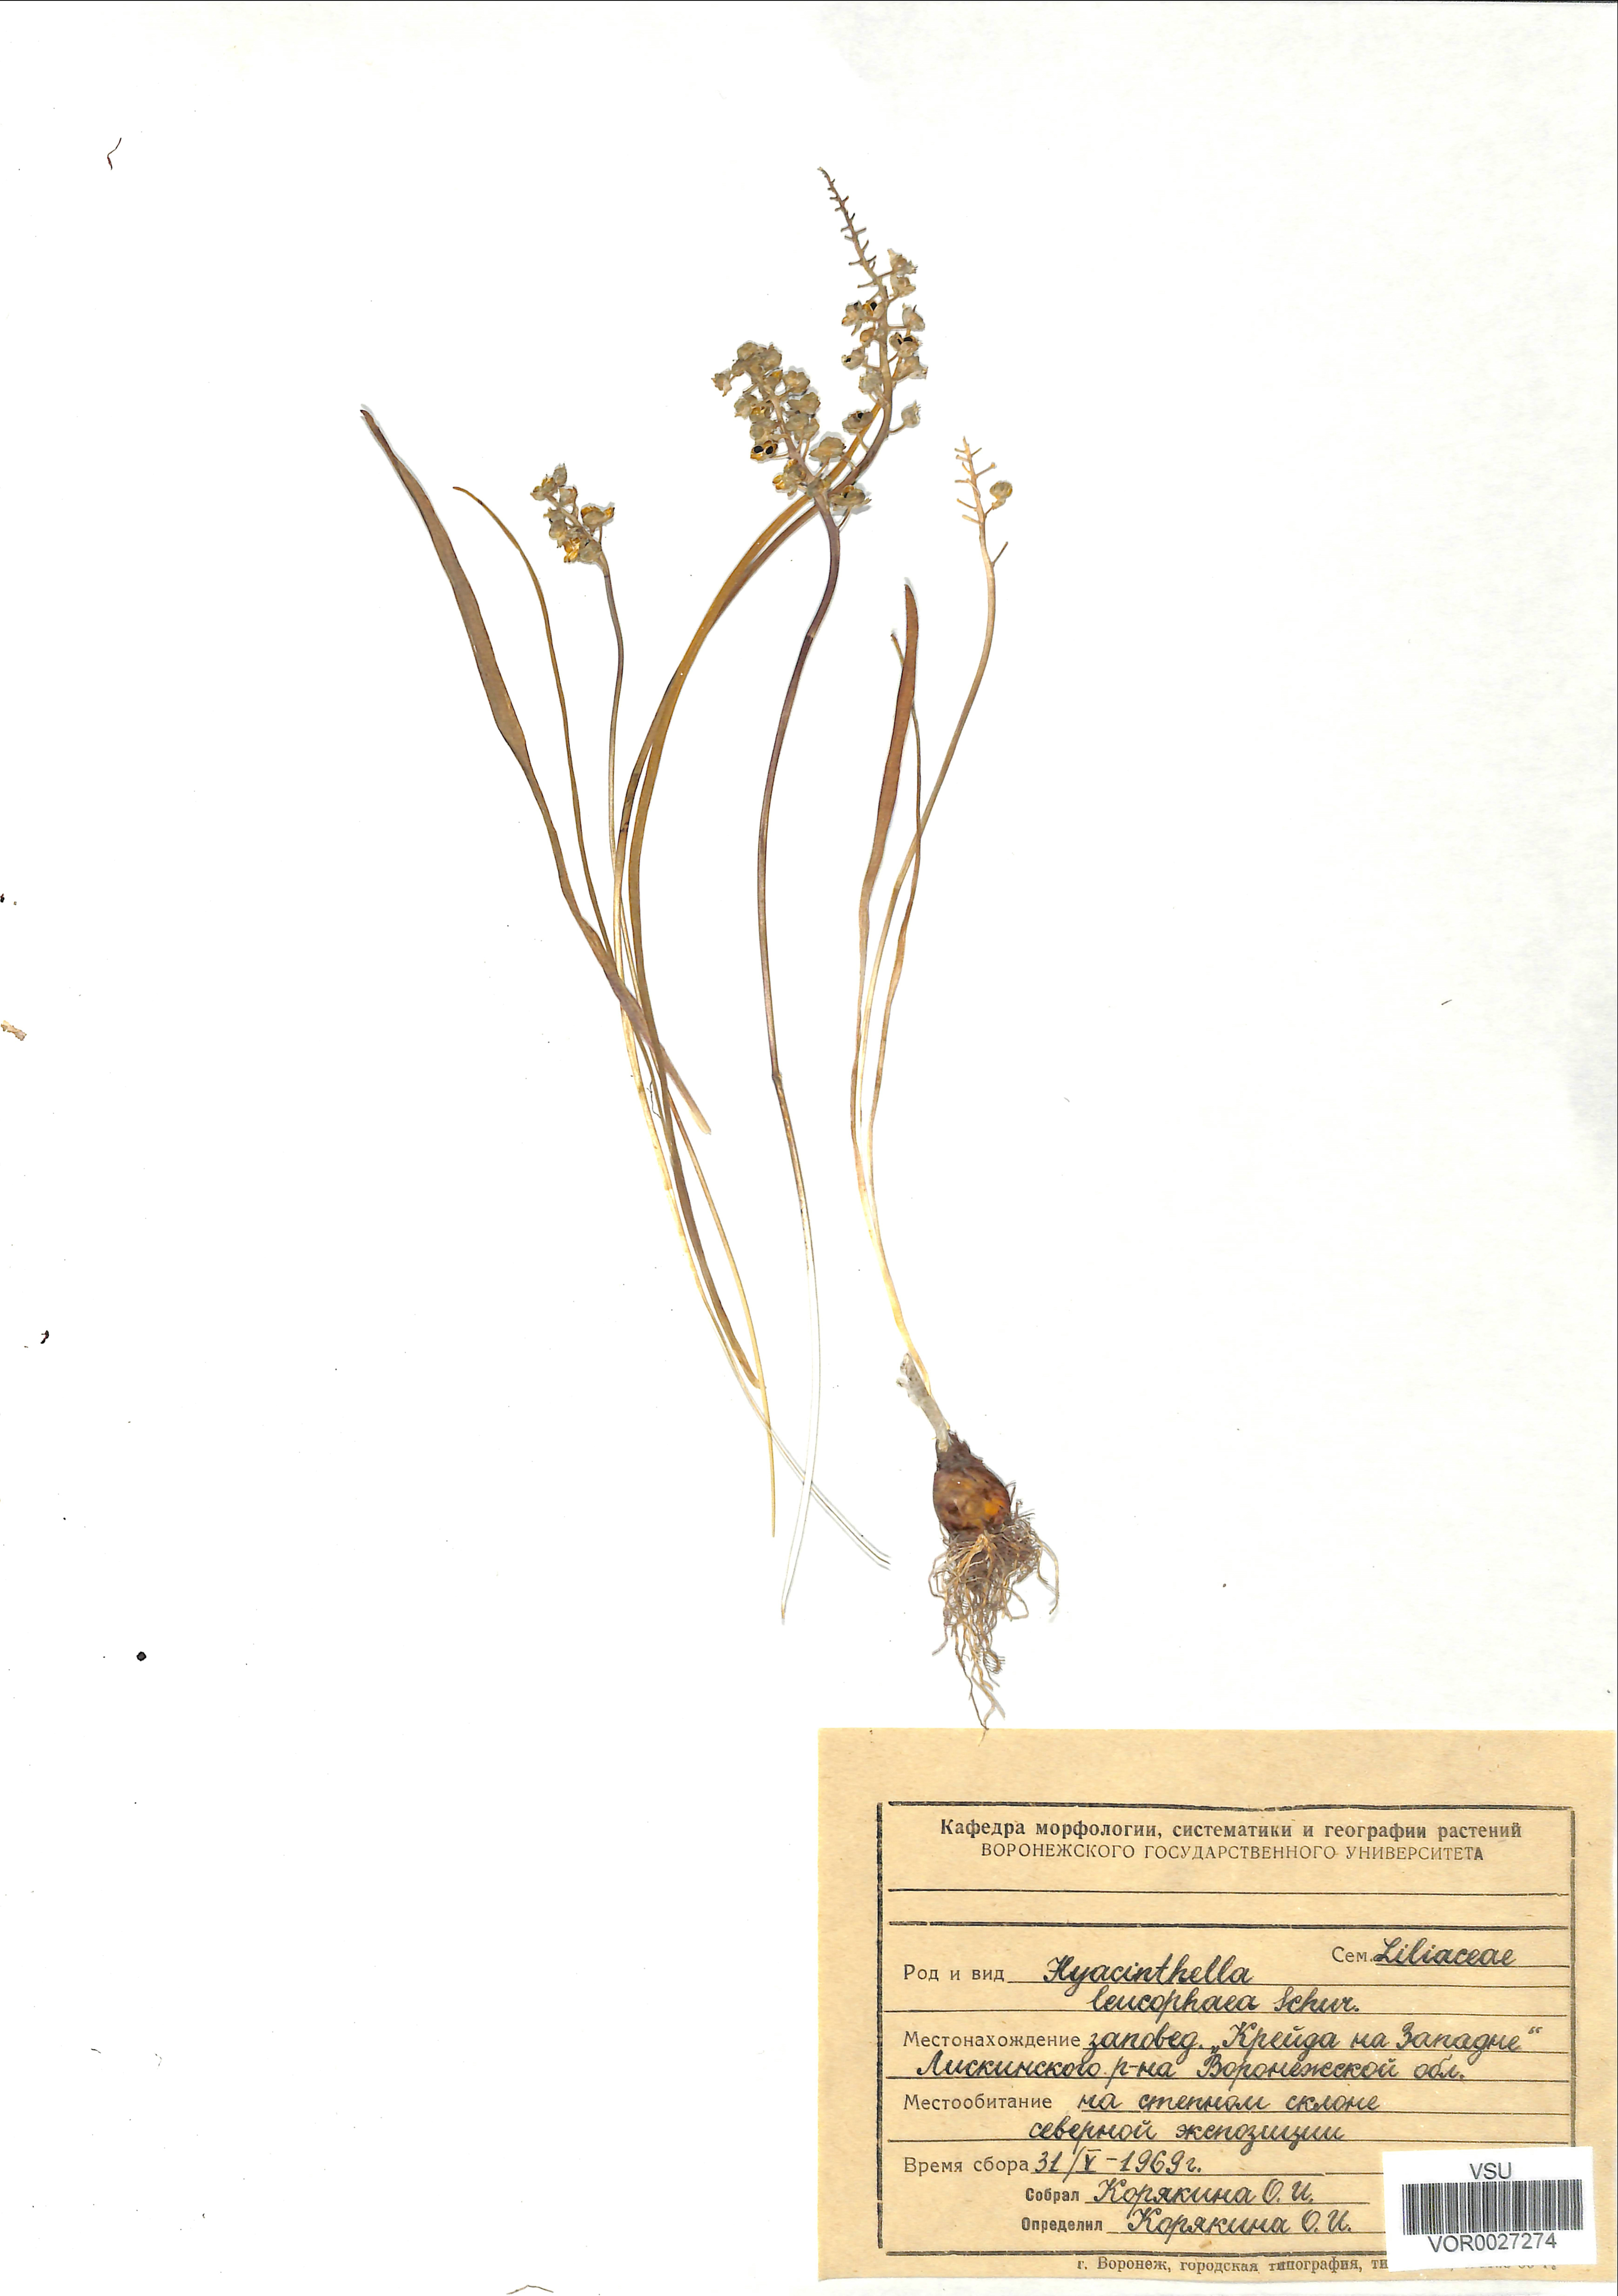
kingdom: Plantae
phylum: Tracheophyta
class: Liliopsida
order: Asparagales
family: Asparagaceae
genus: Hyacinthella
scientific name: Hyacinthella leucophaea
